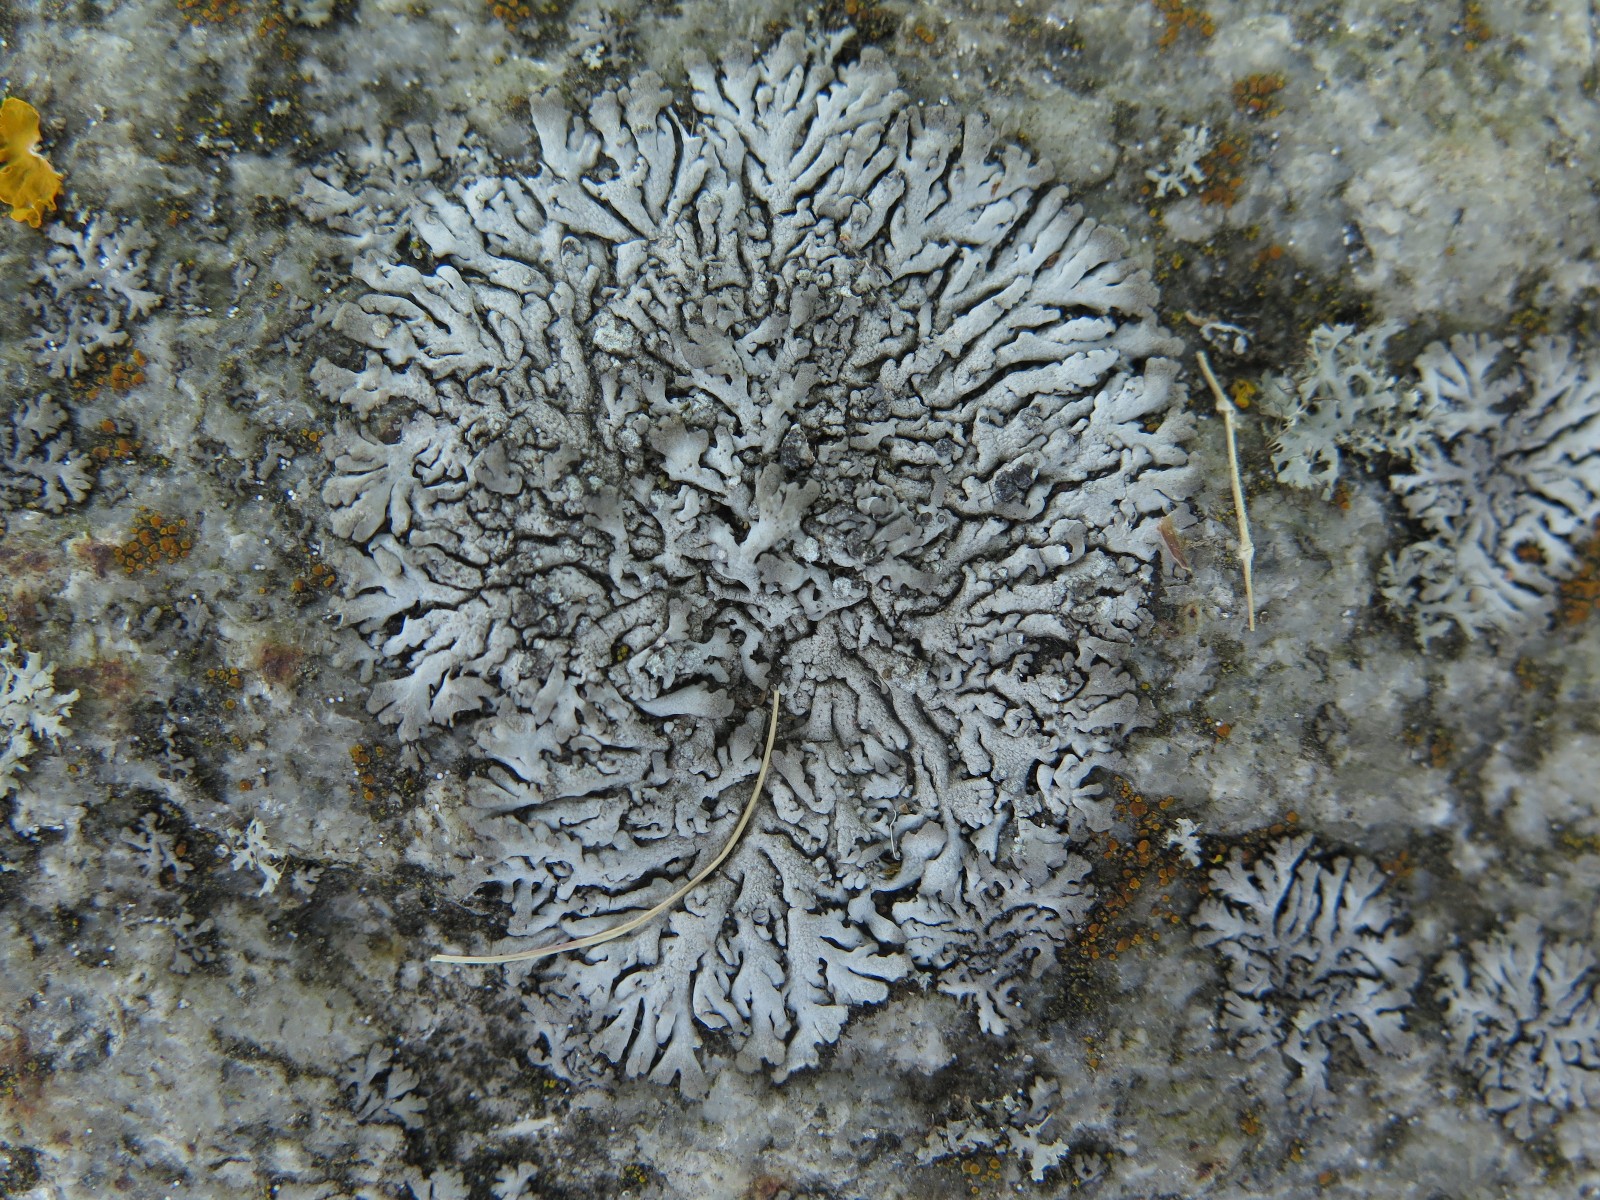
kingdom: Fungi
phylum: Ascomycota
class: Lecanoromycetes
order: Caliciales
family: Physciaceae
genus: Physcia
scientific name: Physcia caesia
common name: blågrå rosetlav
